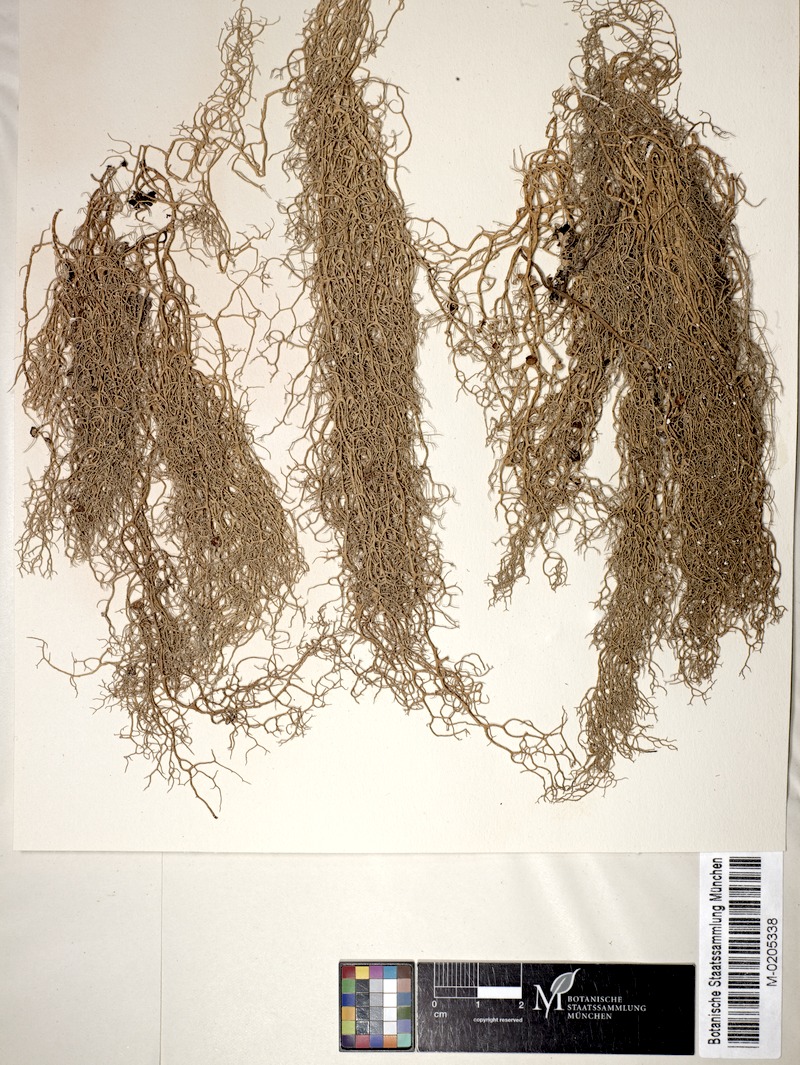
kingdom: Fungi
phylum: Ascomycota
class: Lecanoromycetes
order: Lecanorales
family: Parmeliaceae
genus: Evernia
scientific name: Evernia illyrica
